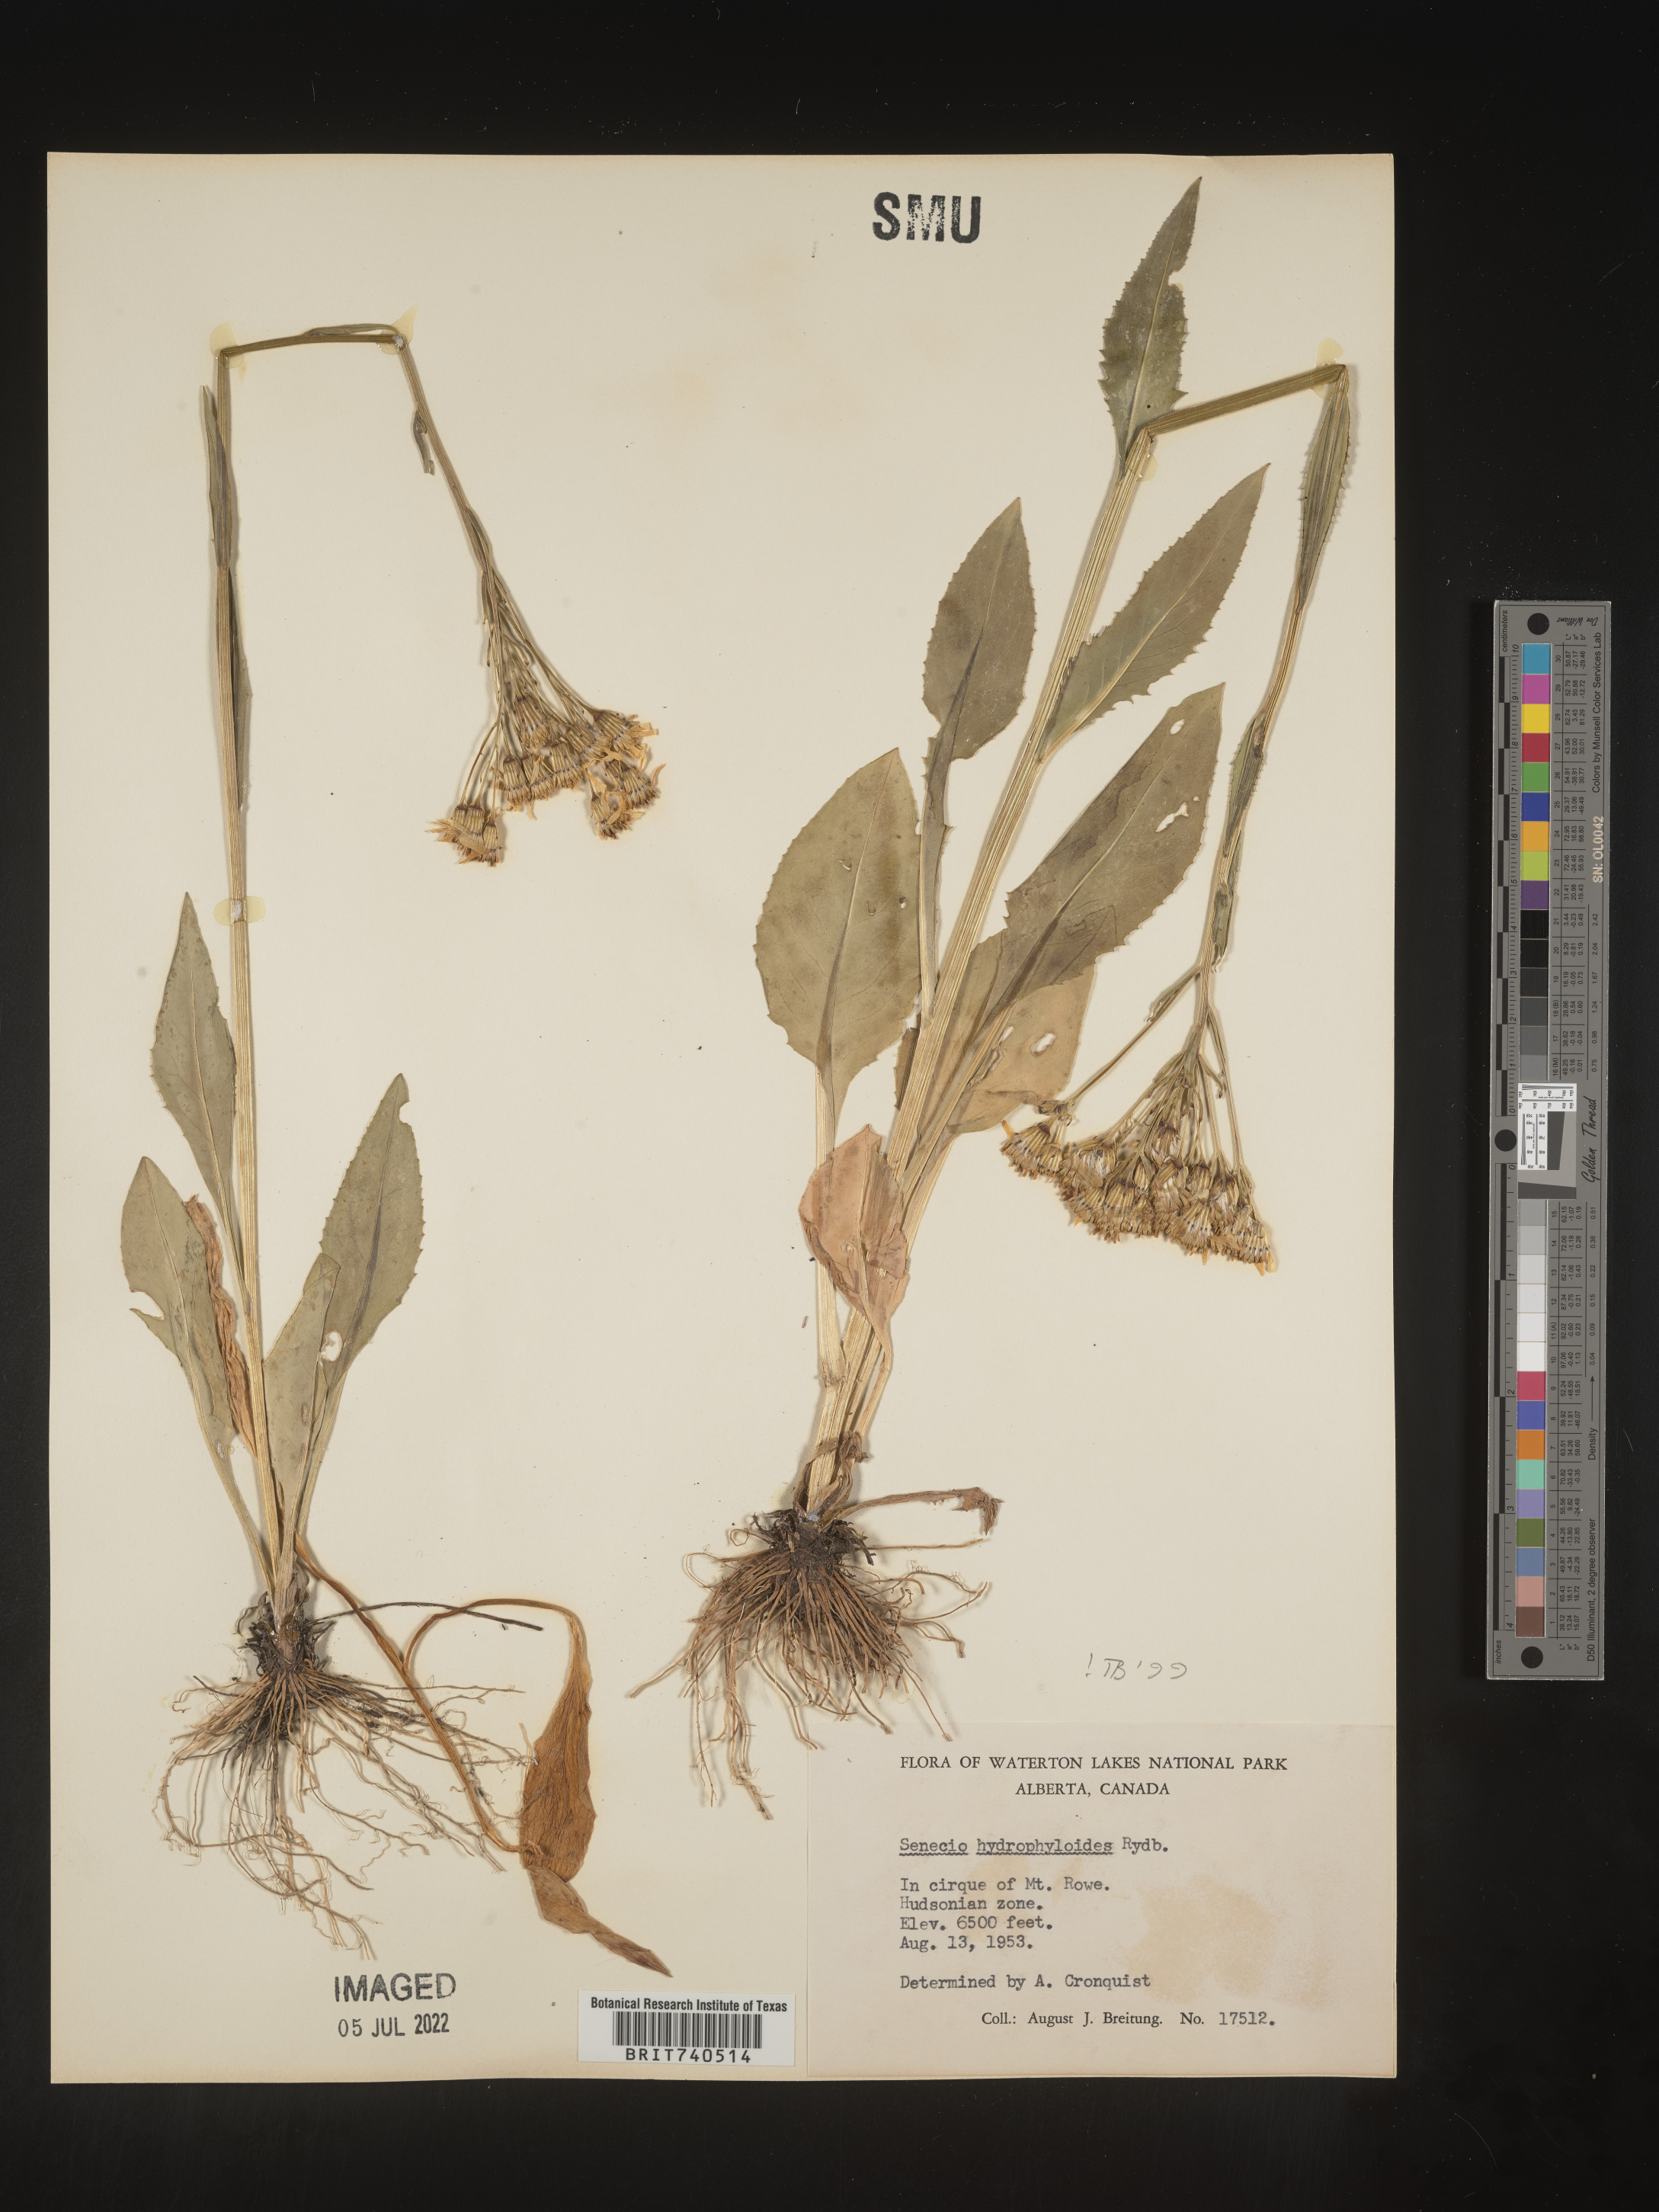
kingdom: Plantae
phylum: Tracheophyta
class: Magnoliopsida
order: Asterales
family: Asteraceae
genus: Senecio
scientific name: Senecio hydrophiloides
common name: Stout meadow groundsel
